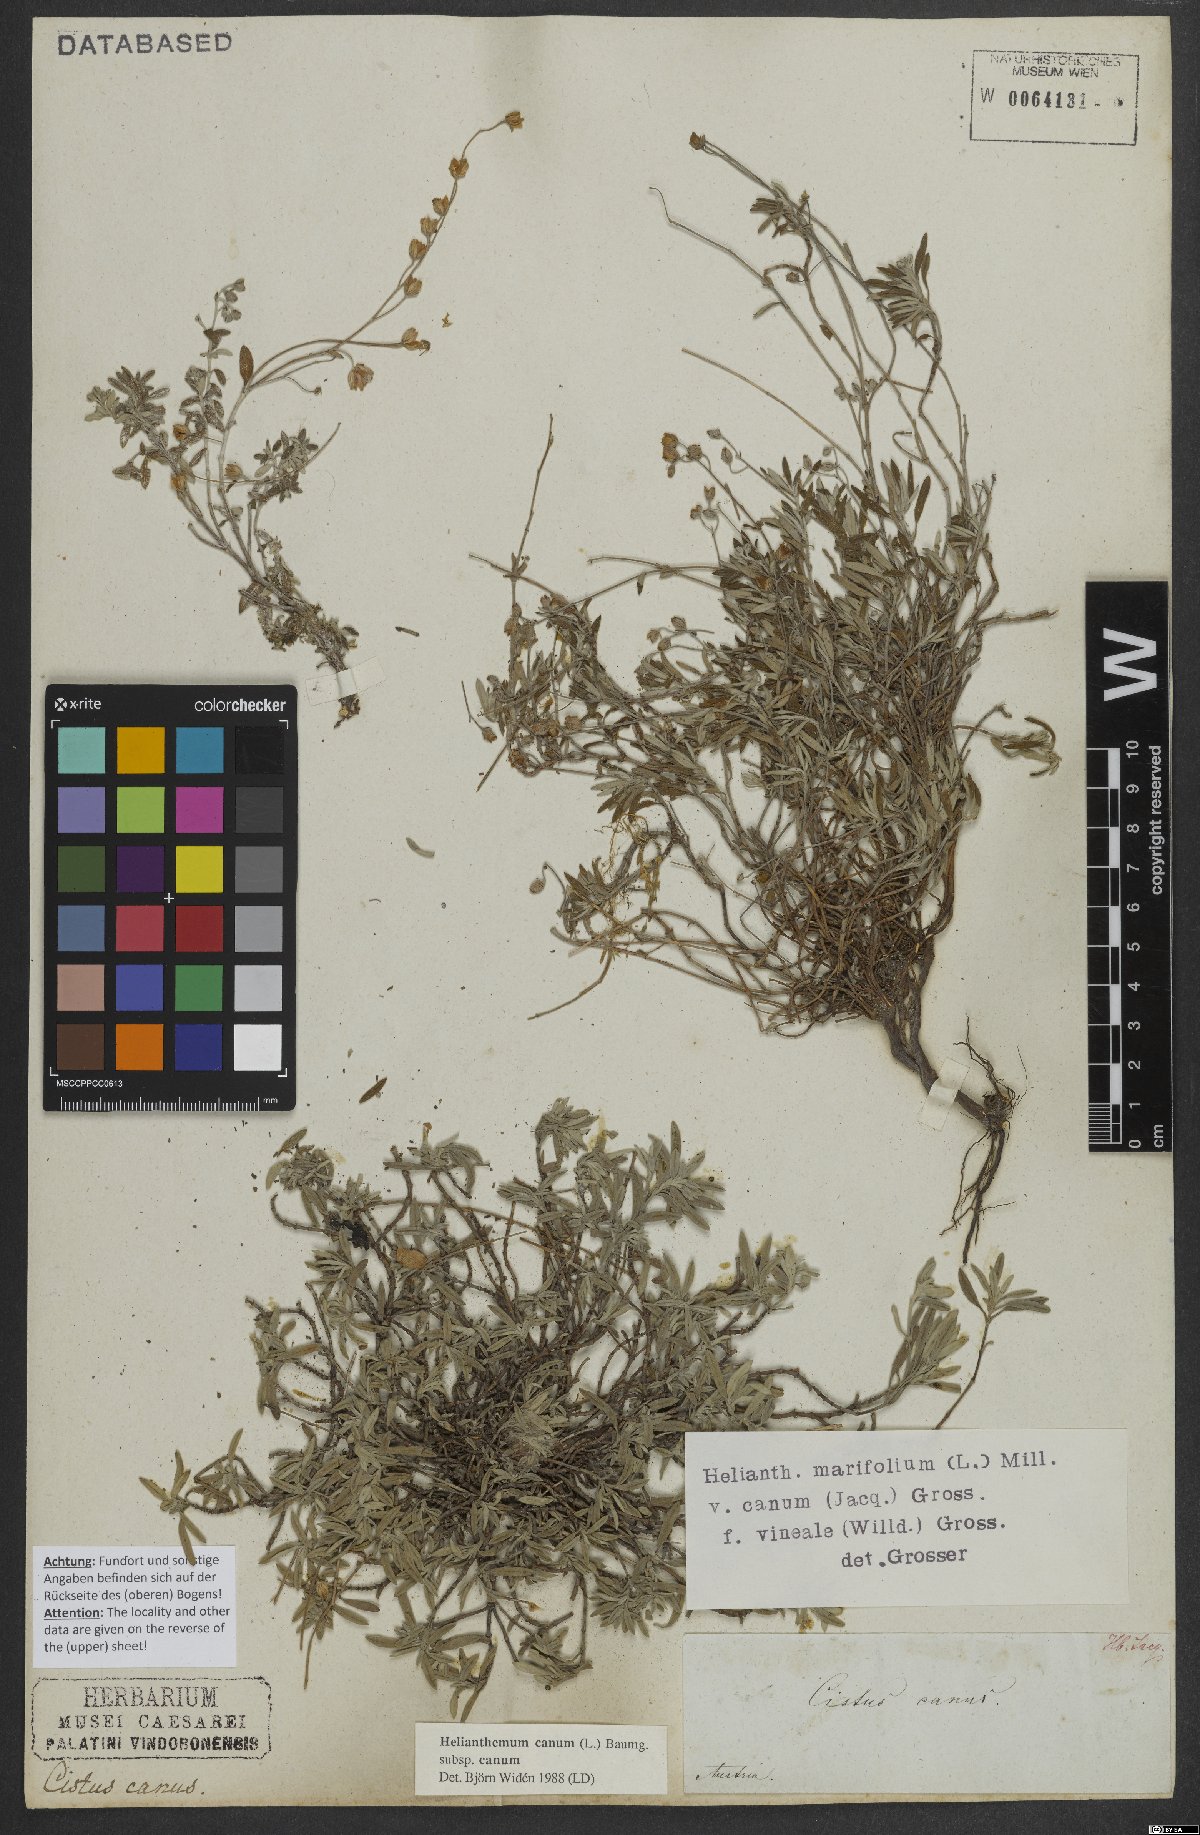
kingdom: Plantae
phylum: Tracheophyta
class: Magnoliopsida
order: Malvales
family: Cistaceae
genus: Helianthemum
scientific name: Helianthemum canum
